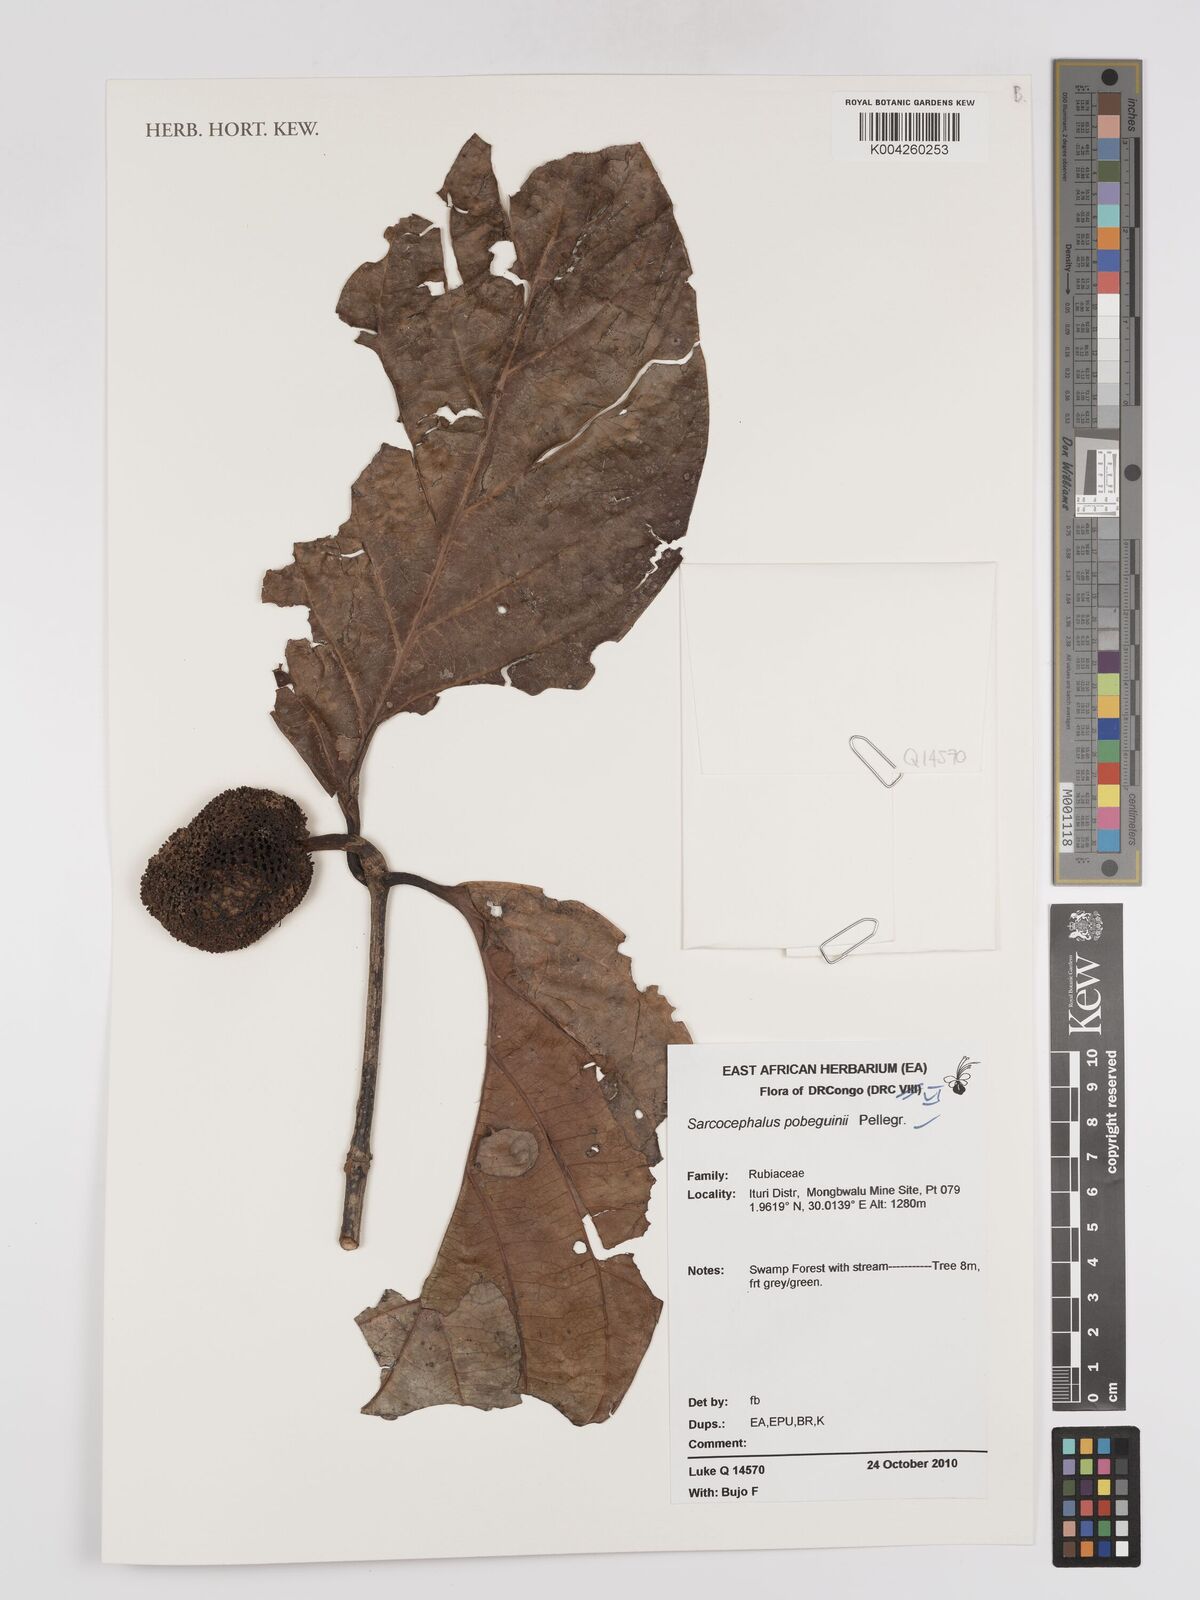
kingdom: Plantae
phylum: Tracheophyta
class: Magnoliopsida
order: Gentianales
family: Rubiaceae
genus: Nauclea
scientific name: Nauclea pobeguinii
